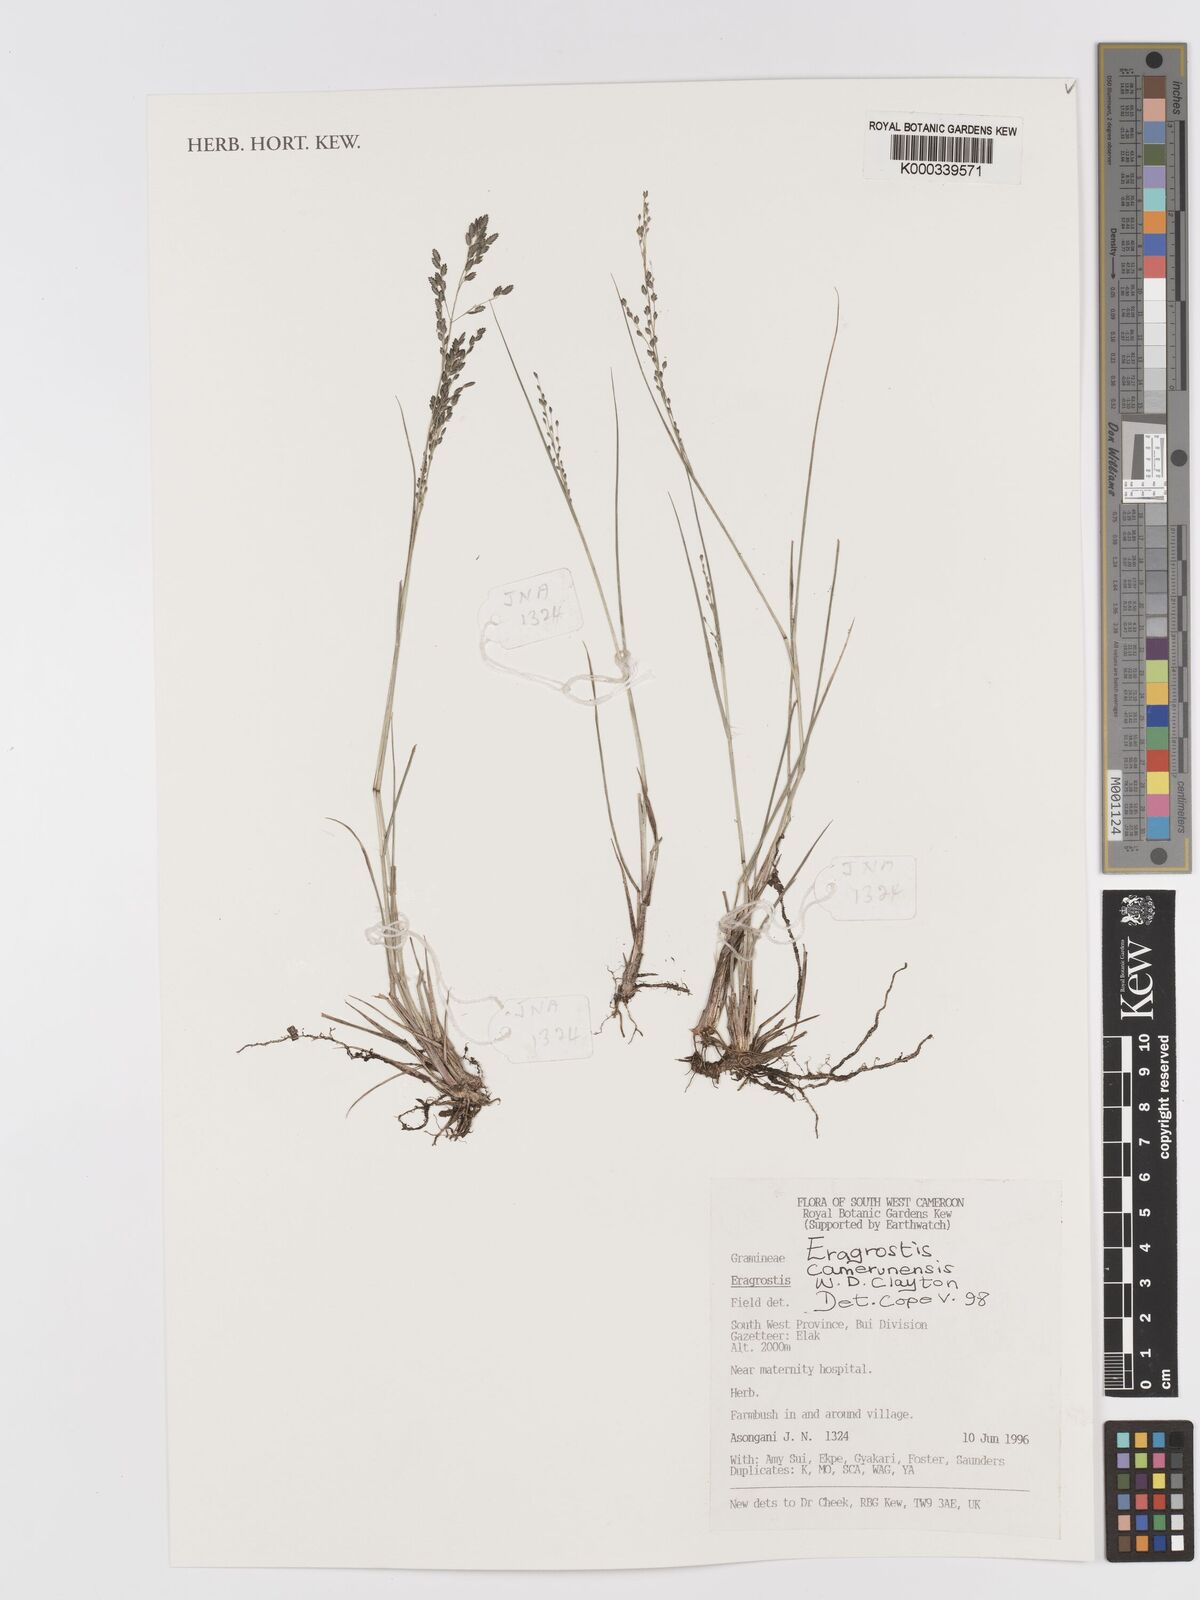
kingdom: Plantae
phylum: Tracheophyta
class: Liliopsida
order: Poales
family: Poaceae
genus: Eragrostis
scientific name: Eragrostis camerunensis
